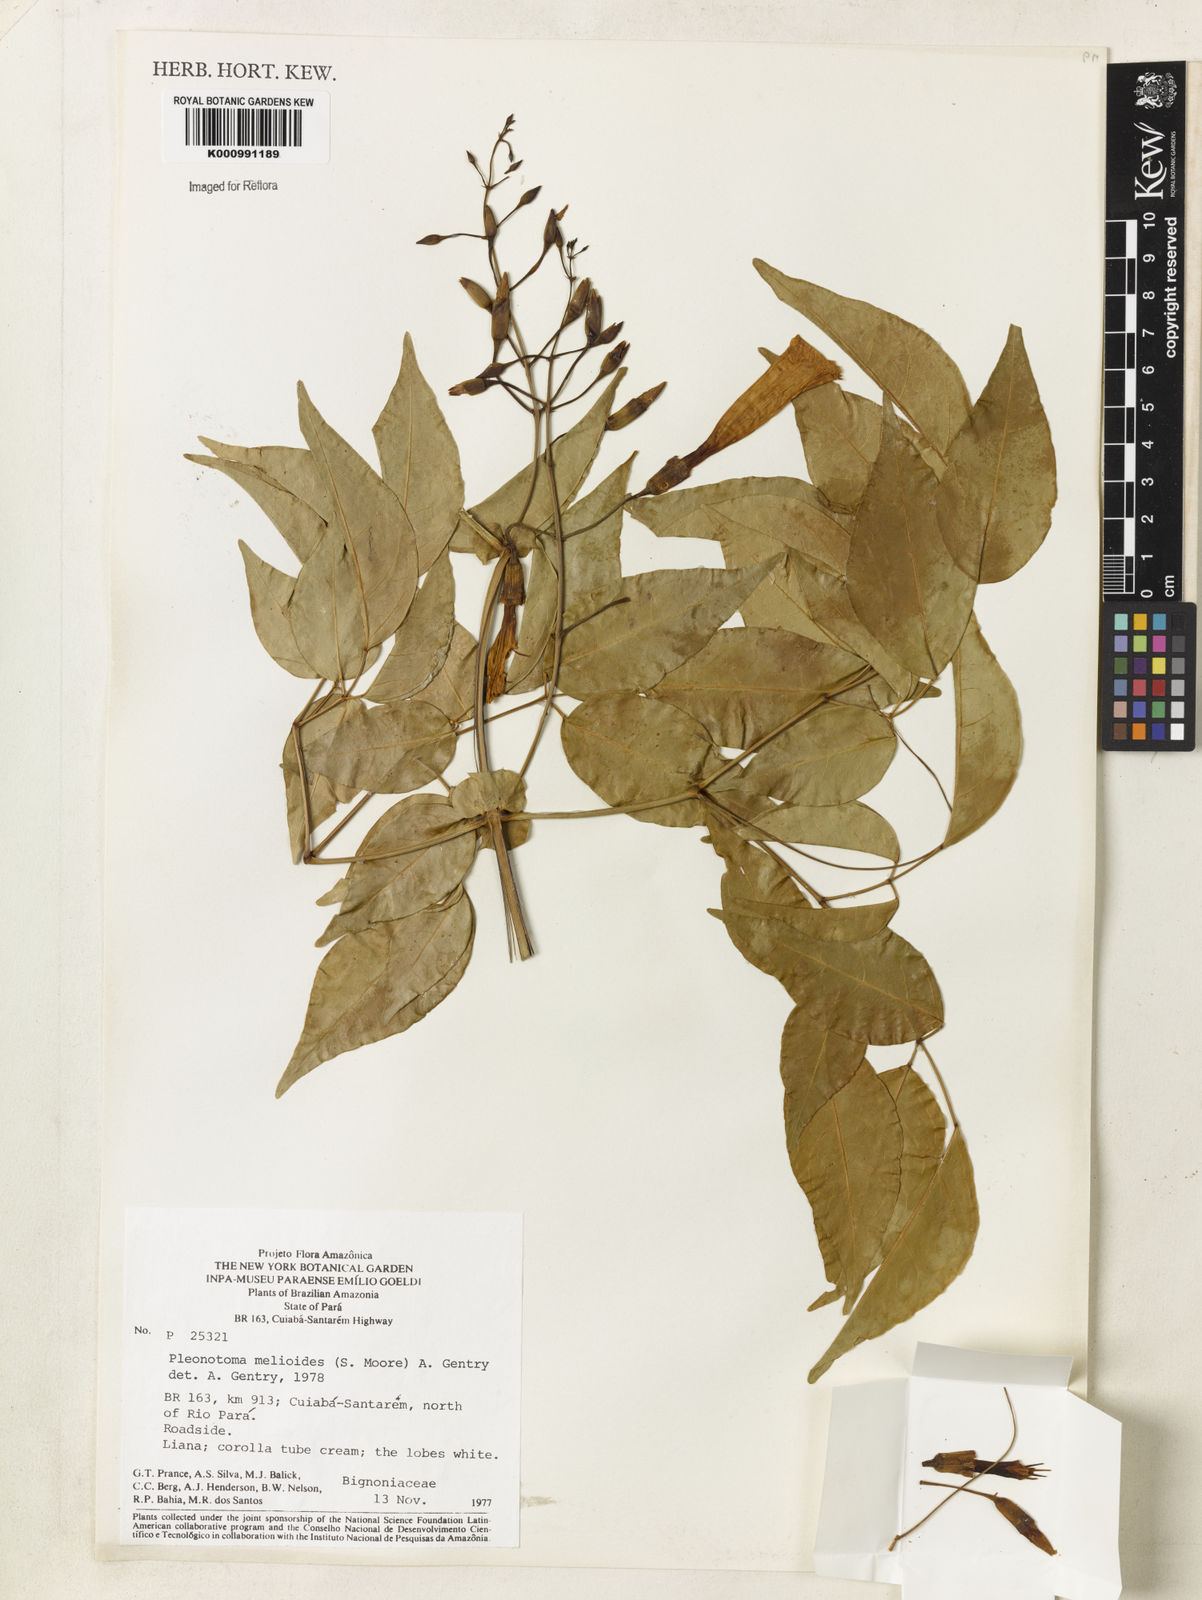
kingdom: Plantae
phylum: Tracheophyta
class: Magnoliopsida
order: Lamiales
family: Bignoniaceae
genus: Pleonotoma
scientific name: Pleonotoma melioides
